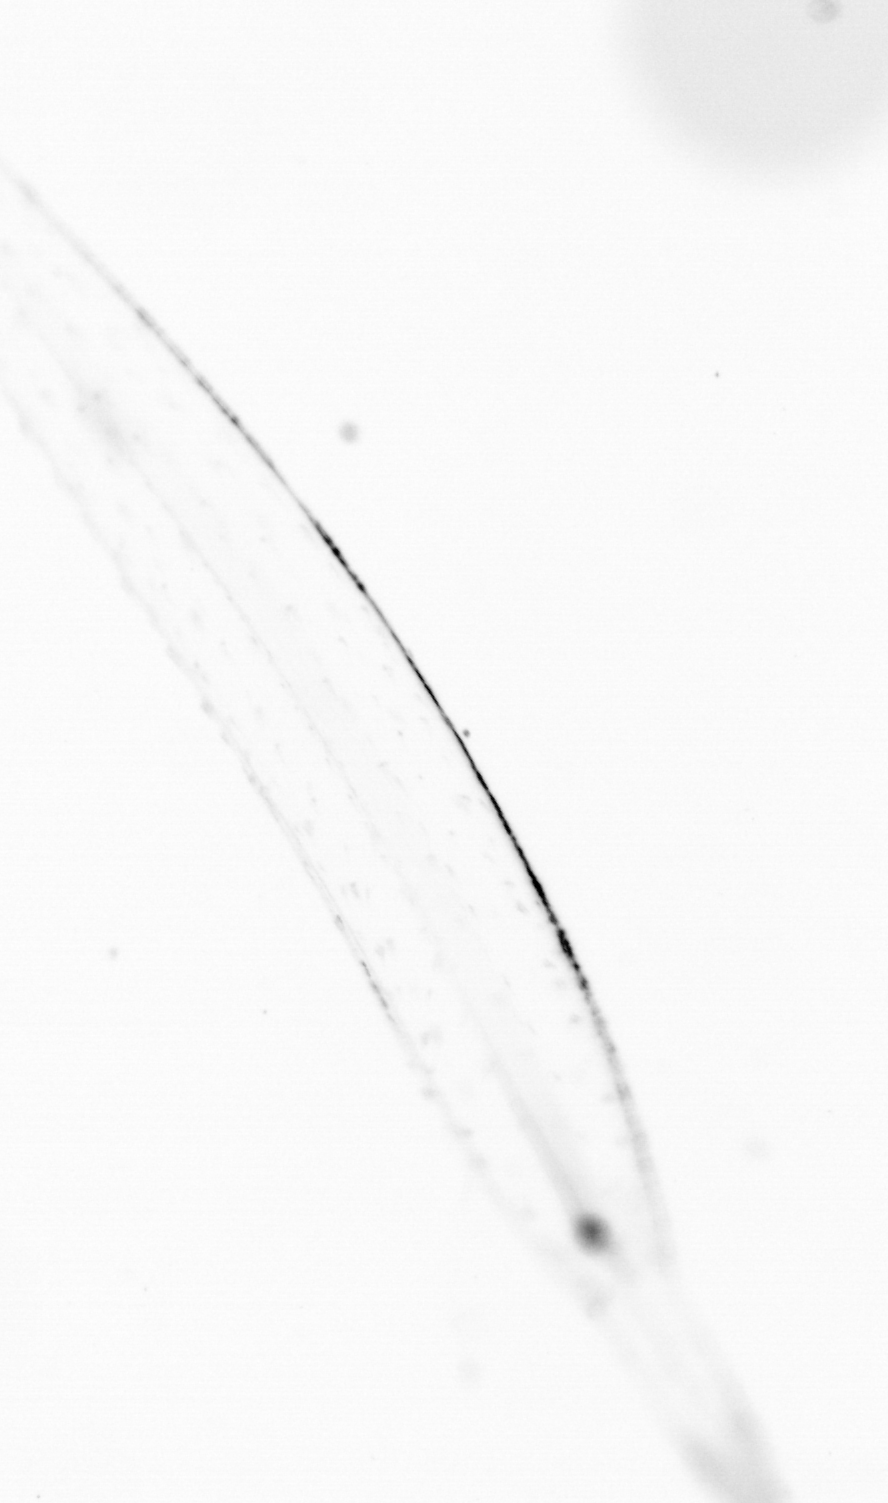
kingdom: Animalia
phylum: Chaetognatha
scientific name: Chaetognatha
